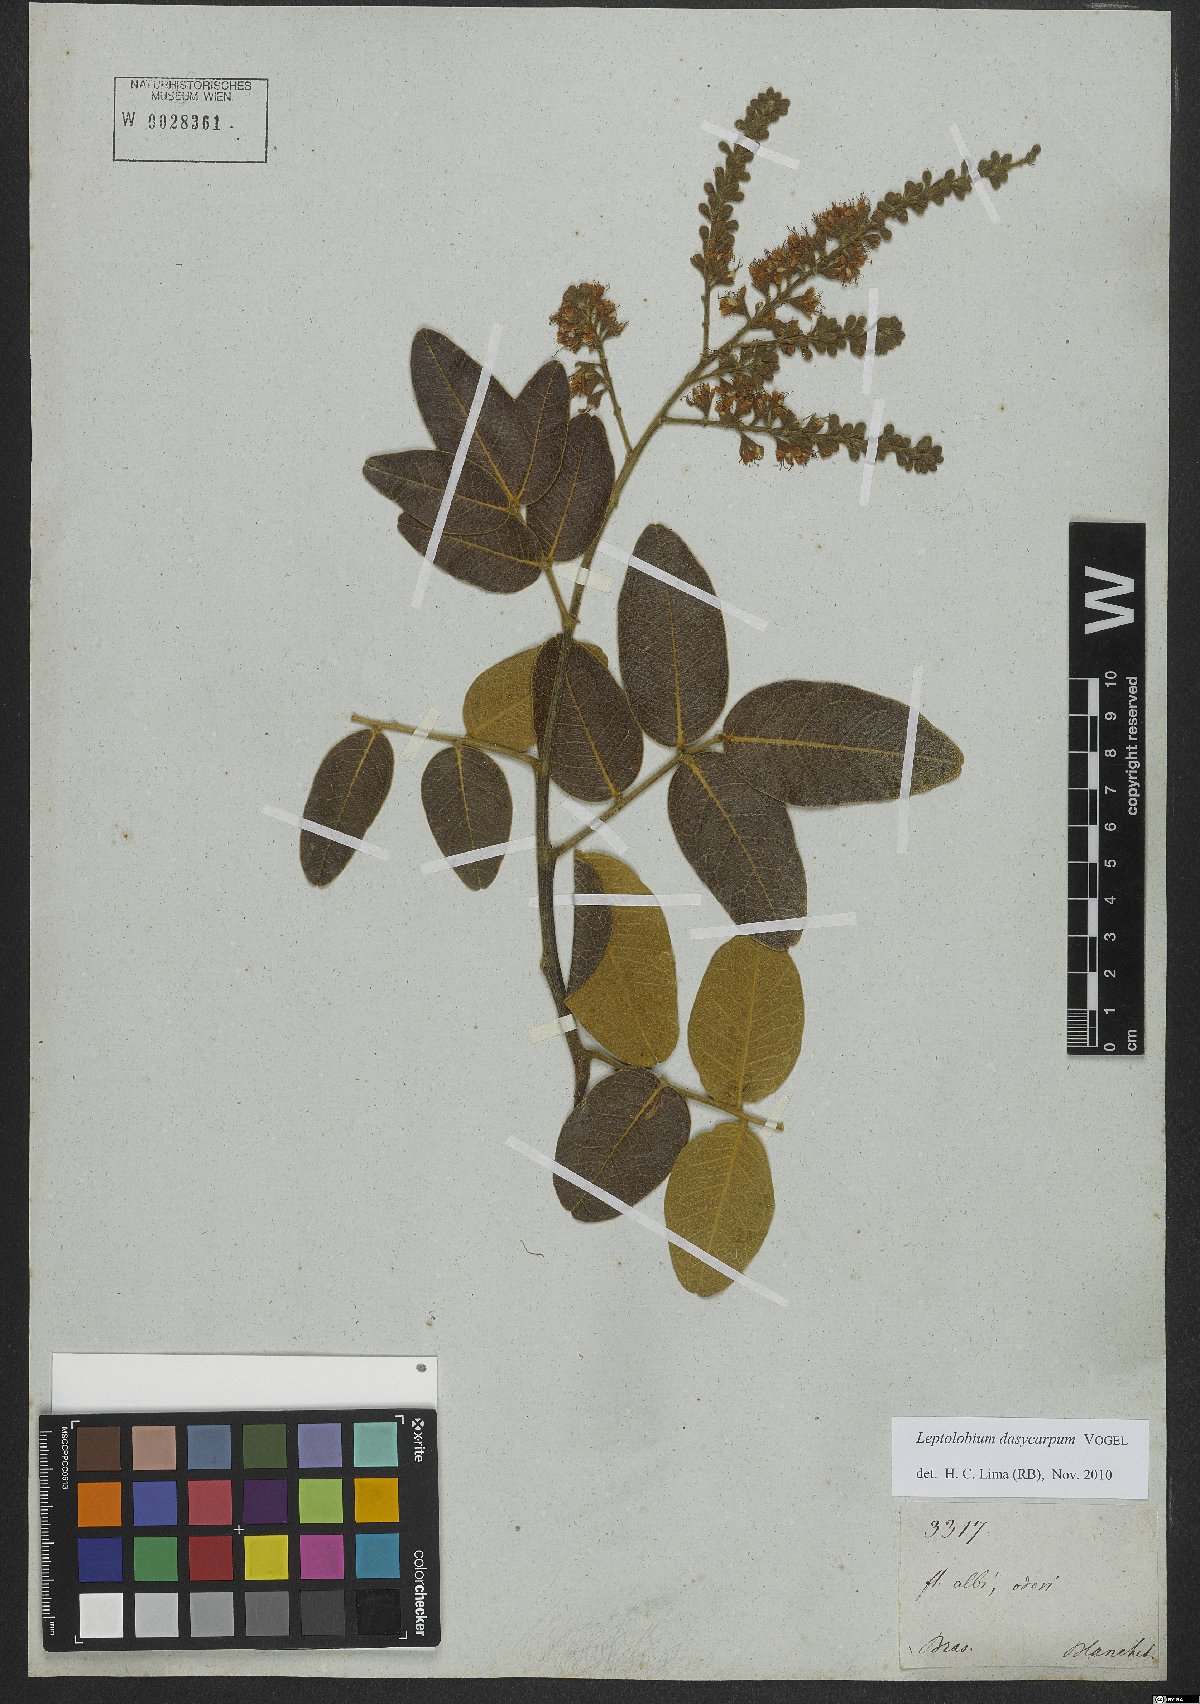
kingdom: Plantae
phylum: Tracheophyta
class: Magnoliopsida
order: Fabales
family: Fabaceae
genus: Leptolobium
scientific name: Leptolobium dasycarpum
